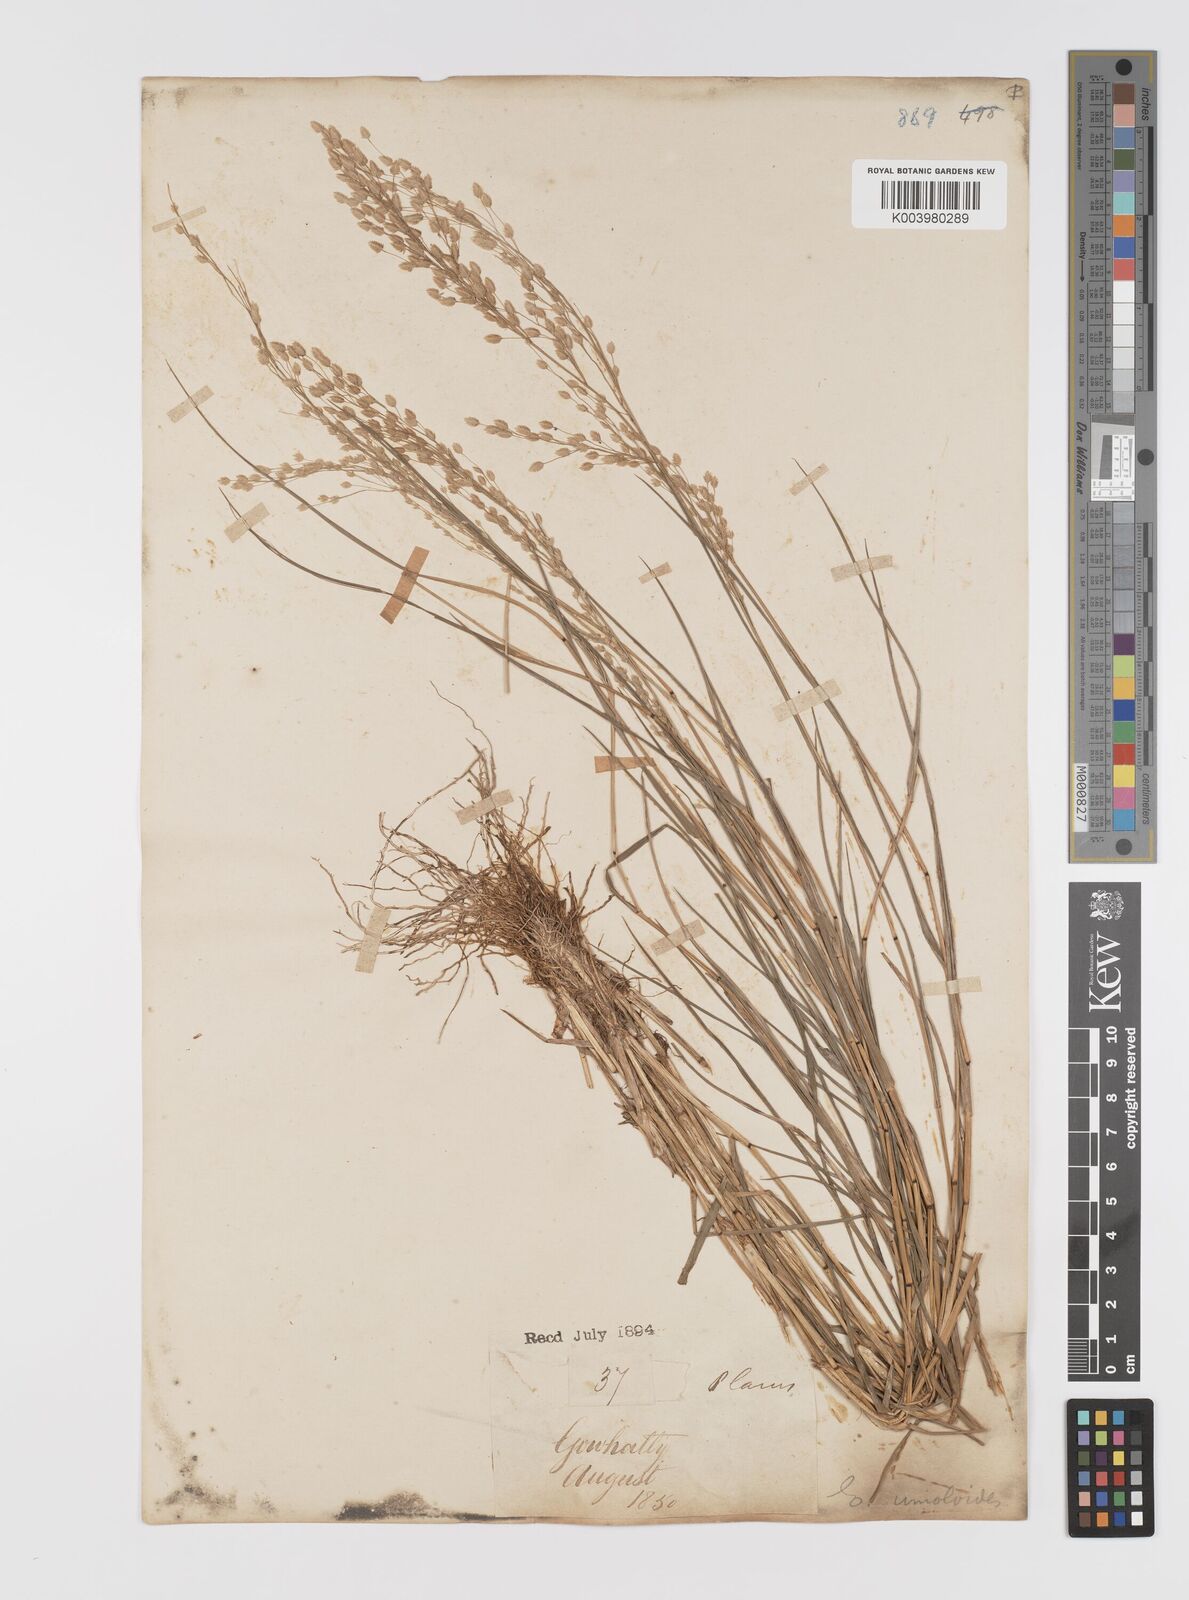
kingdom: Plantae
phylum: Tracheophyta
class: Liliopsida
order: Poales
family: Poaceae
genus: Eragrostis
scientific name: Eragrostis unioloides
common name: Chinese lovegrass
